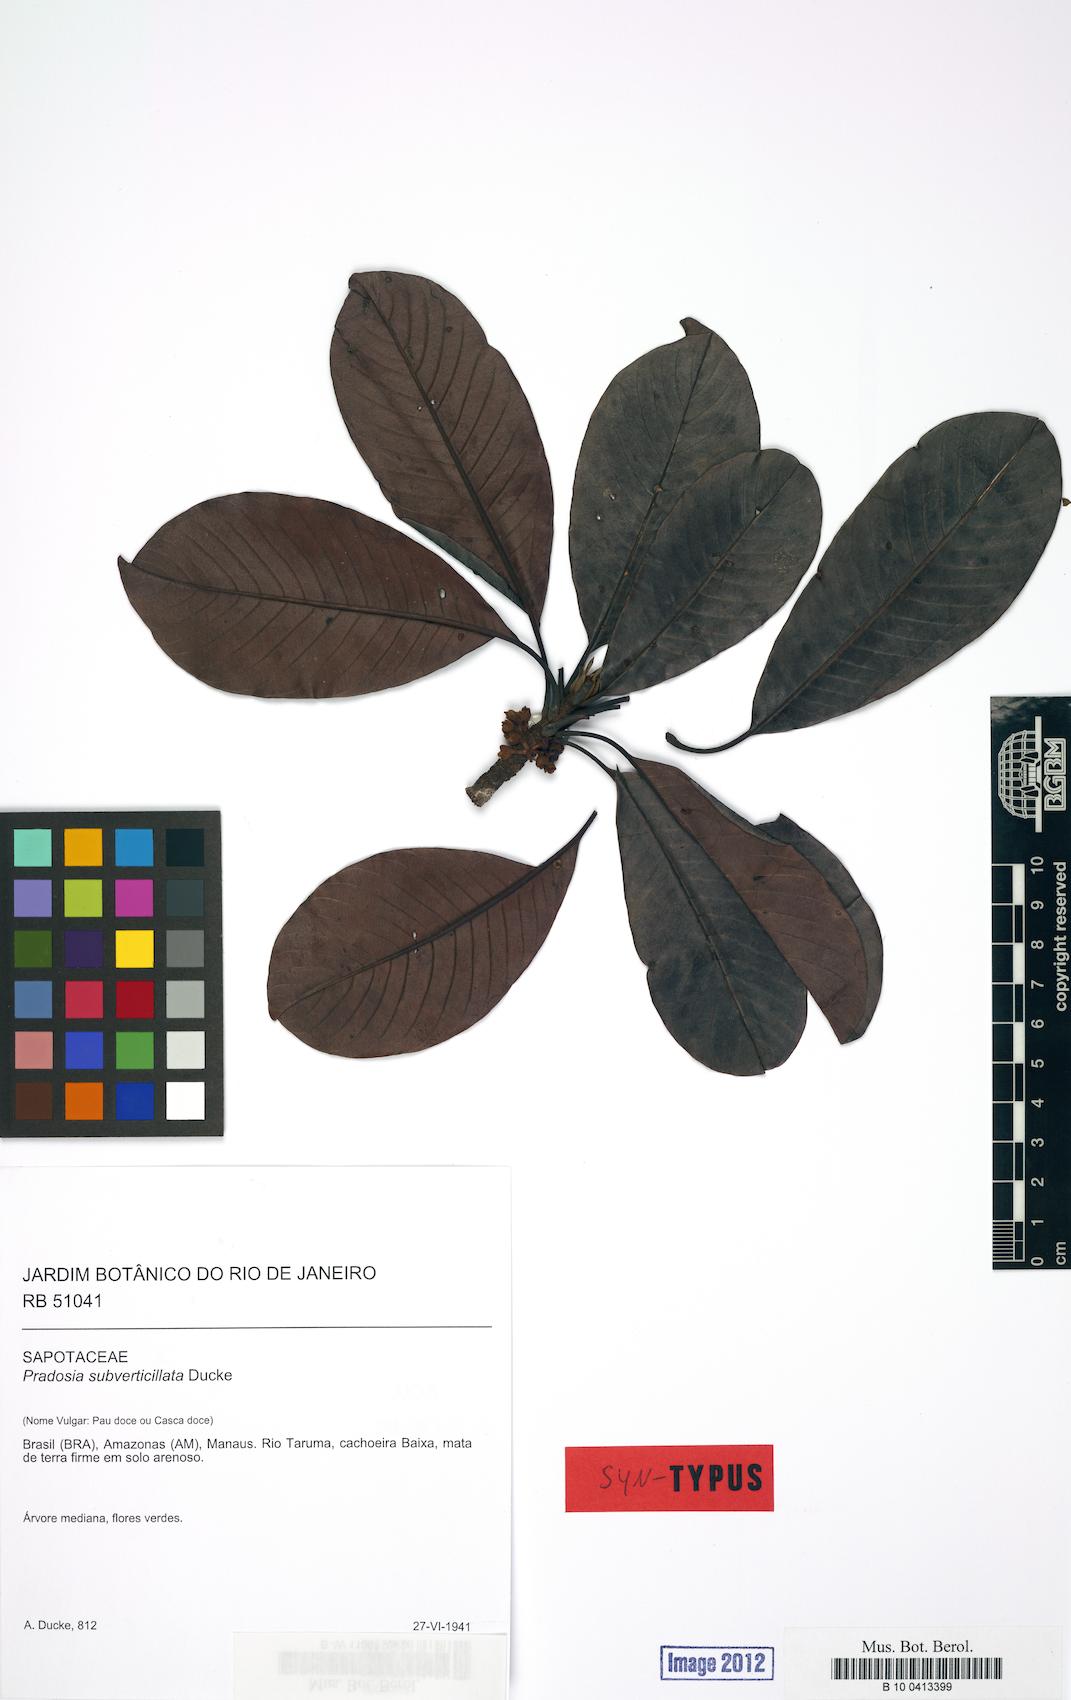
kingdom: Plantae
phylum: Tracheophyta
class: Magnoliopsida
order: Ericales
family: Sapotaceae
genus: Pradosia
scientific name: Pradosia subverticillata
